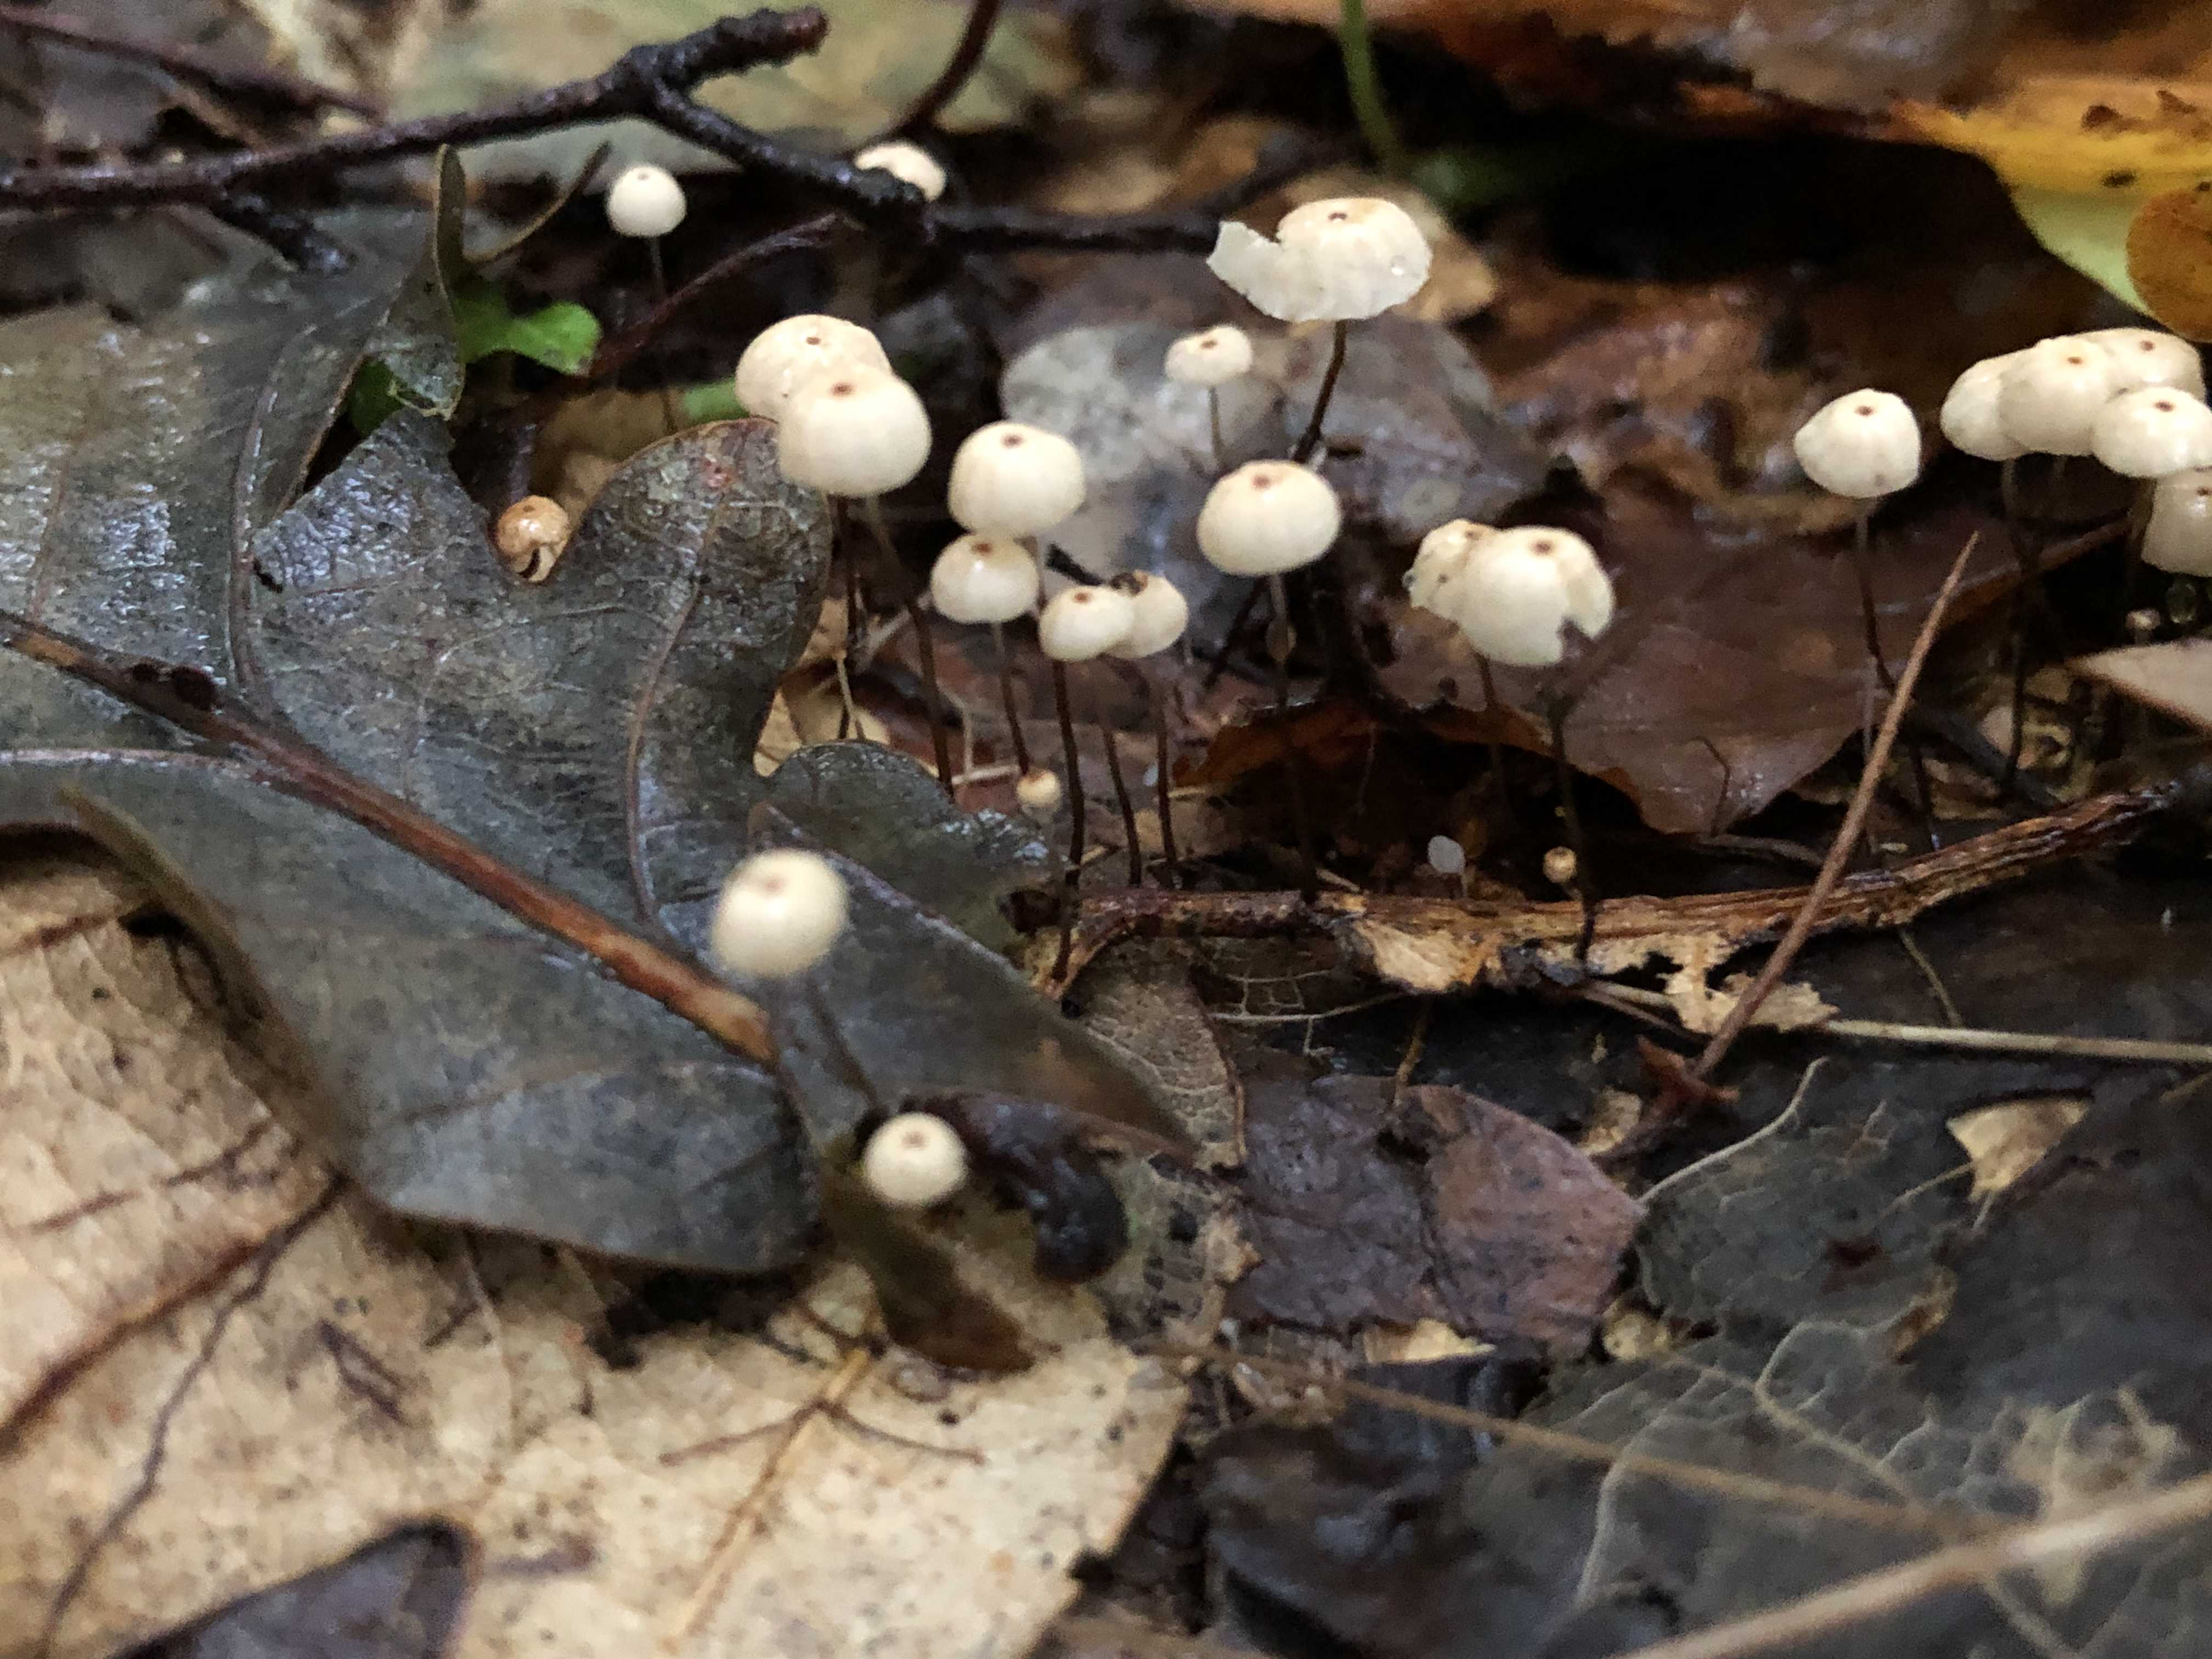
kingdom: Fungi
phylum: Basidiomycota
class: Agaricomycetes
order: Agaricales
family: Marasmiaceae
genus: Marasmius
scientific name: Marasmius bulliardii
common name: furet bruskhat
